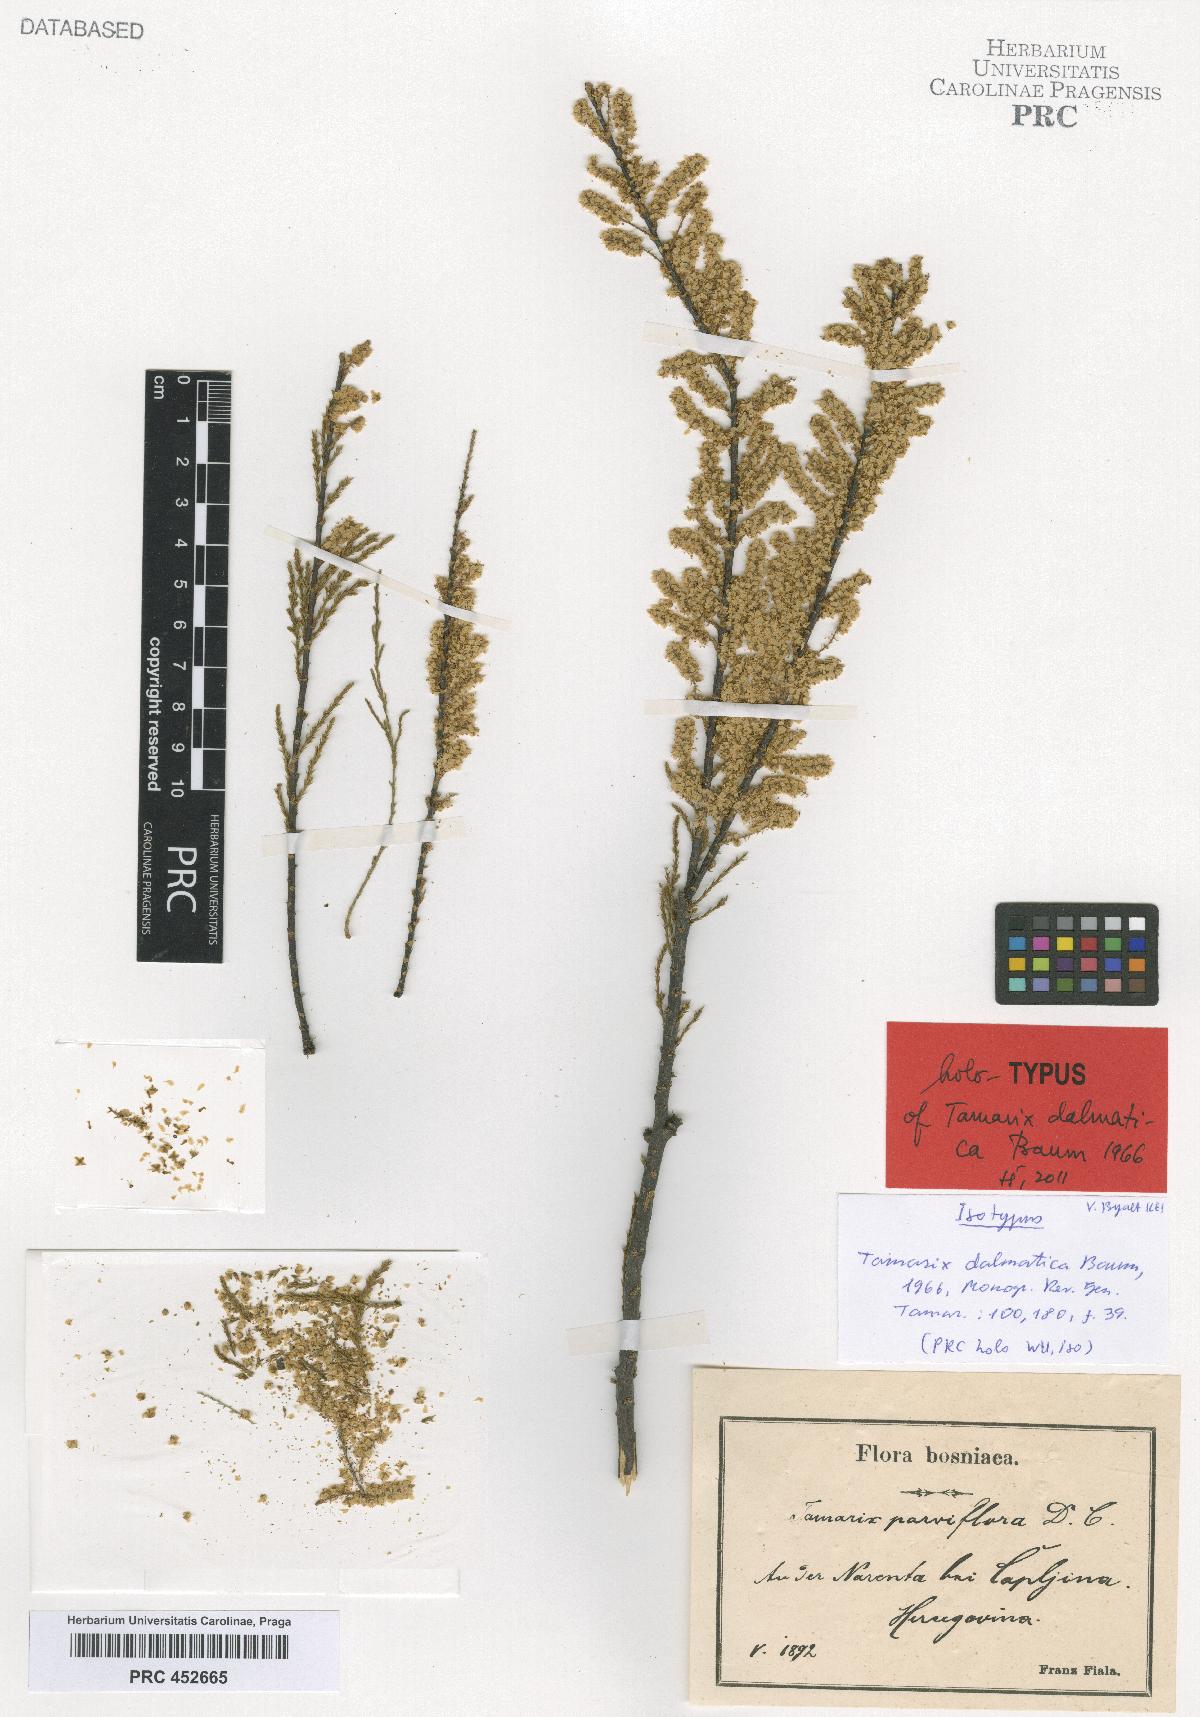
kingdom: Plantae
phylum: Tracheophyta
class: Magnoliopsida
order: Caryophyllales
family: Tamaricaceae
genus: Tamarix
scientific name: Tamarix dalmatica
